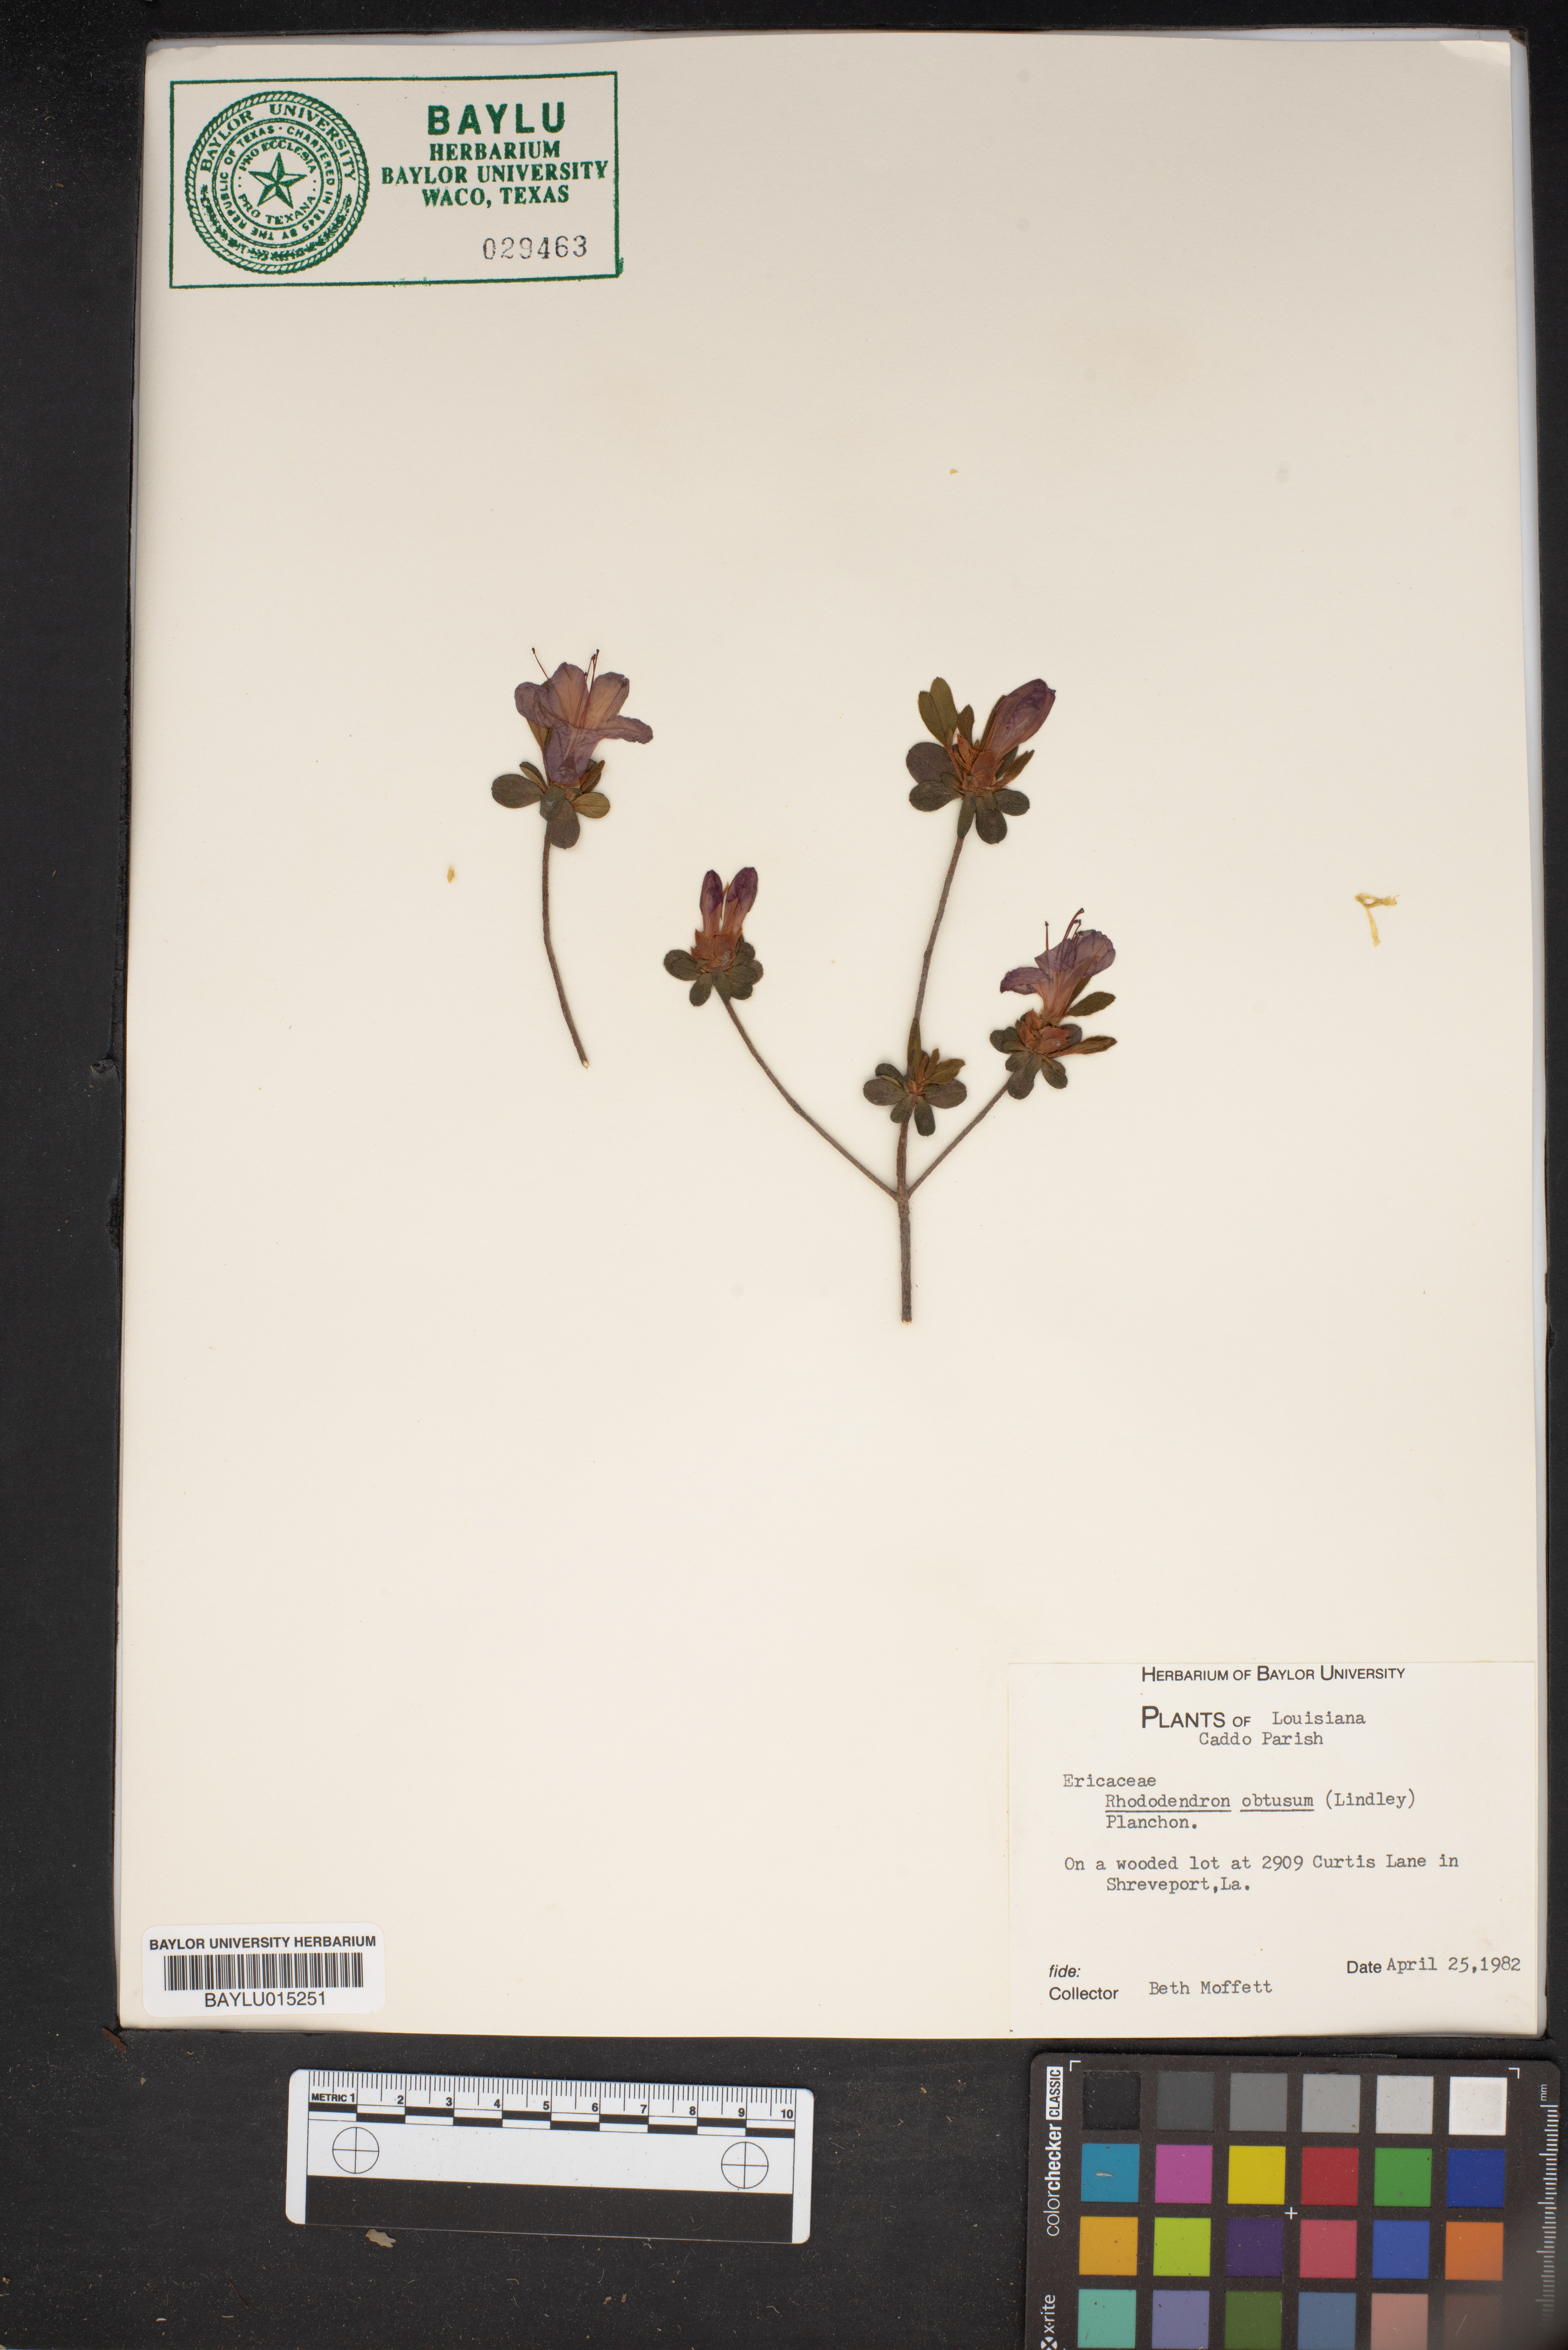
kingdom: Plantae
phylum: Tracheophyta
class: Magnoliopsida
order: Ericales
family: Ericaceae
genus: Rhododendron
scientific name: Rhododendron ponticum
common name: Rhododendron
